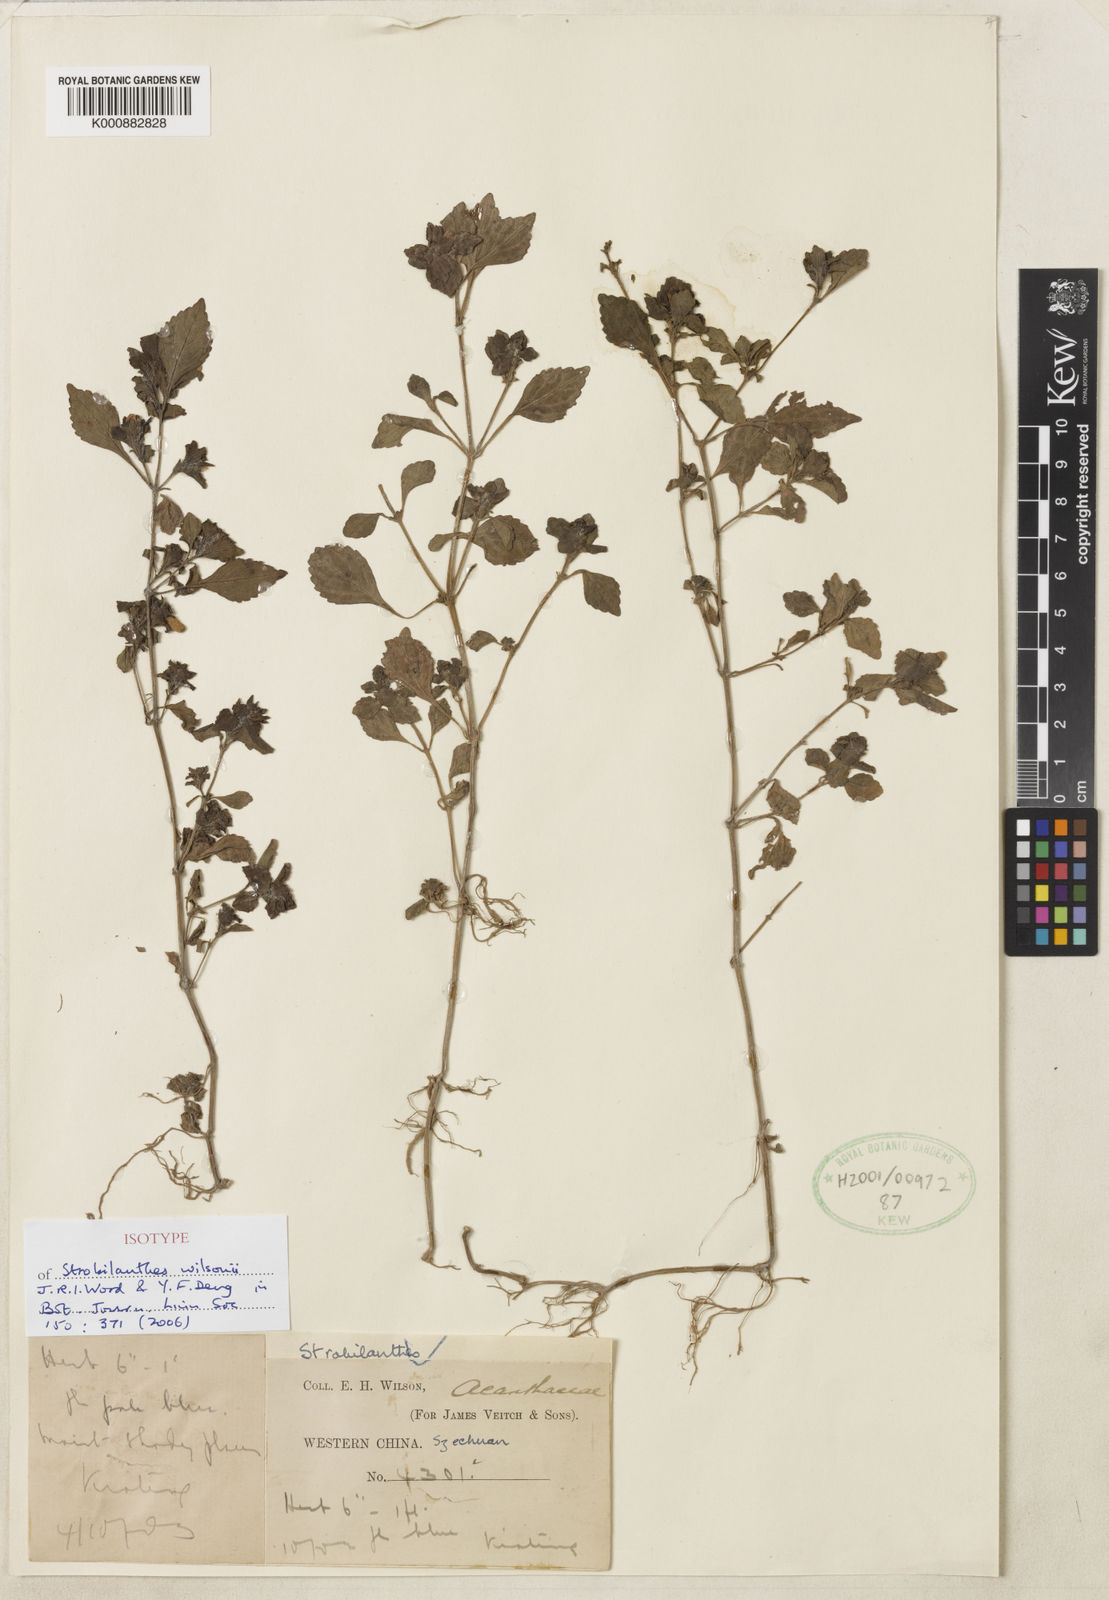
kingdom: Plantae
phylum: Tracheophyta
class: Magnoliopsida
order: Lamiales
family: Acanthaceae
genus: Strobilanthes
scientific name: Strobilanthes wilsonii
